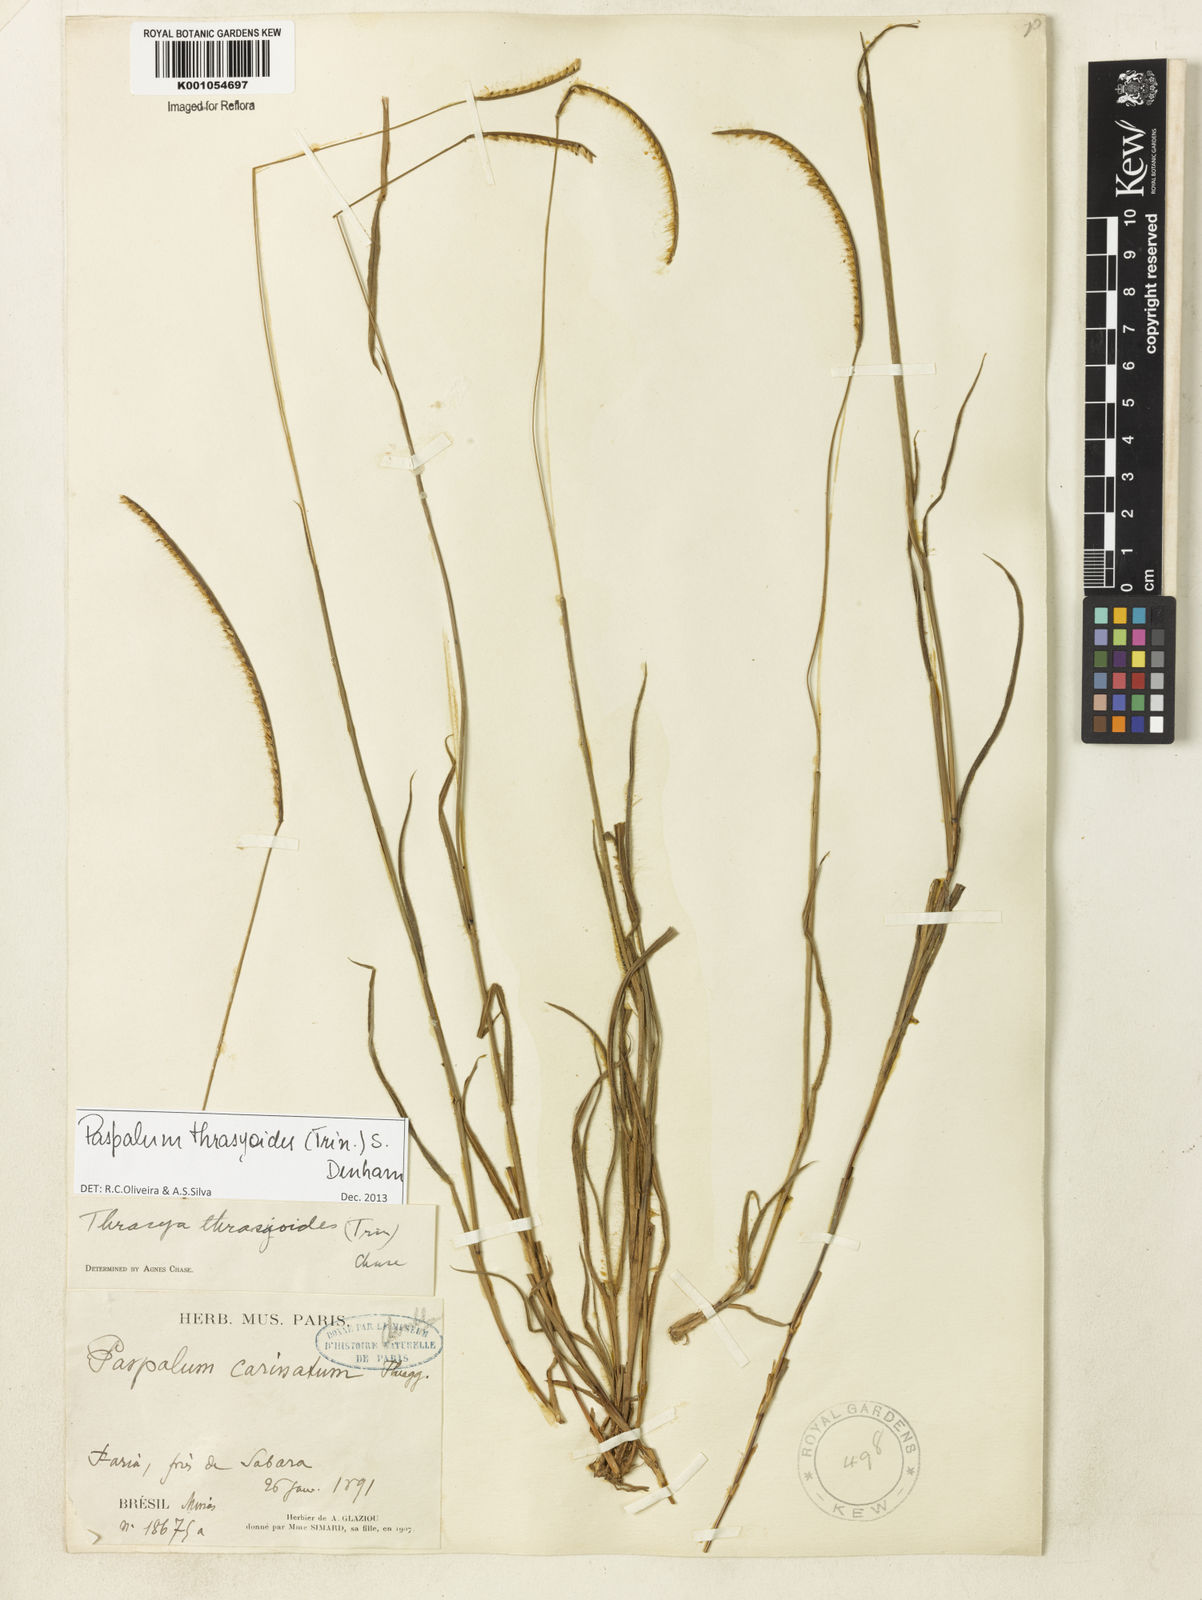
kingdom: Plantae
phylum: Tracheophyta
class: Liliopsida
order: Poales
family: Poaceae
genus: Paspalum
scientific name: Paspalum thrasyoides
